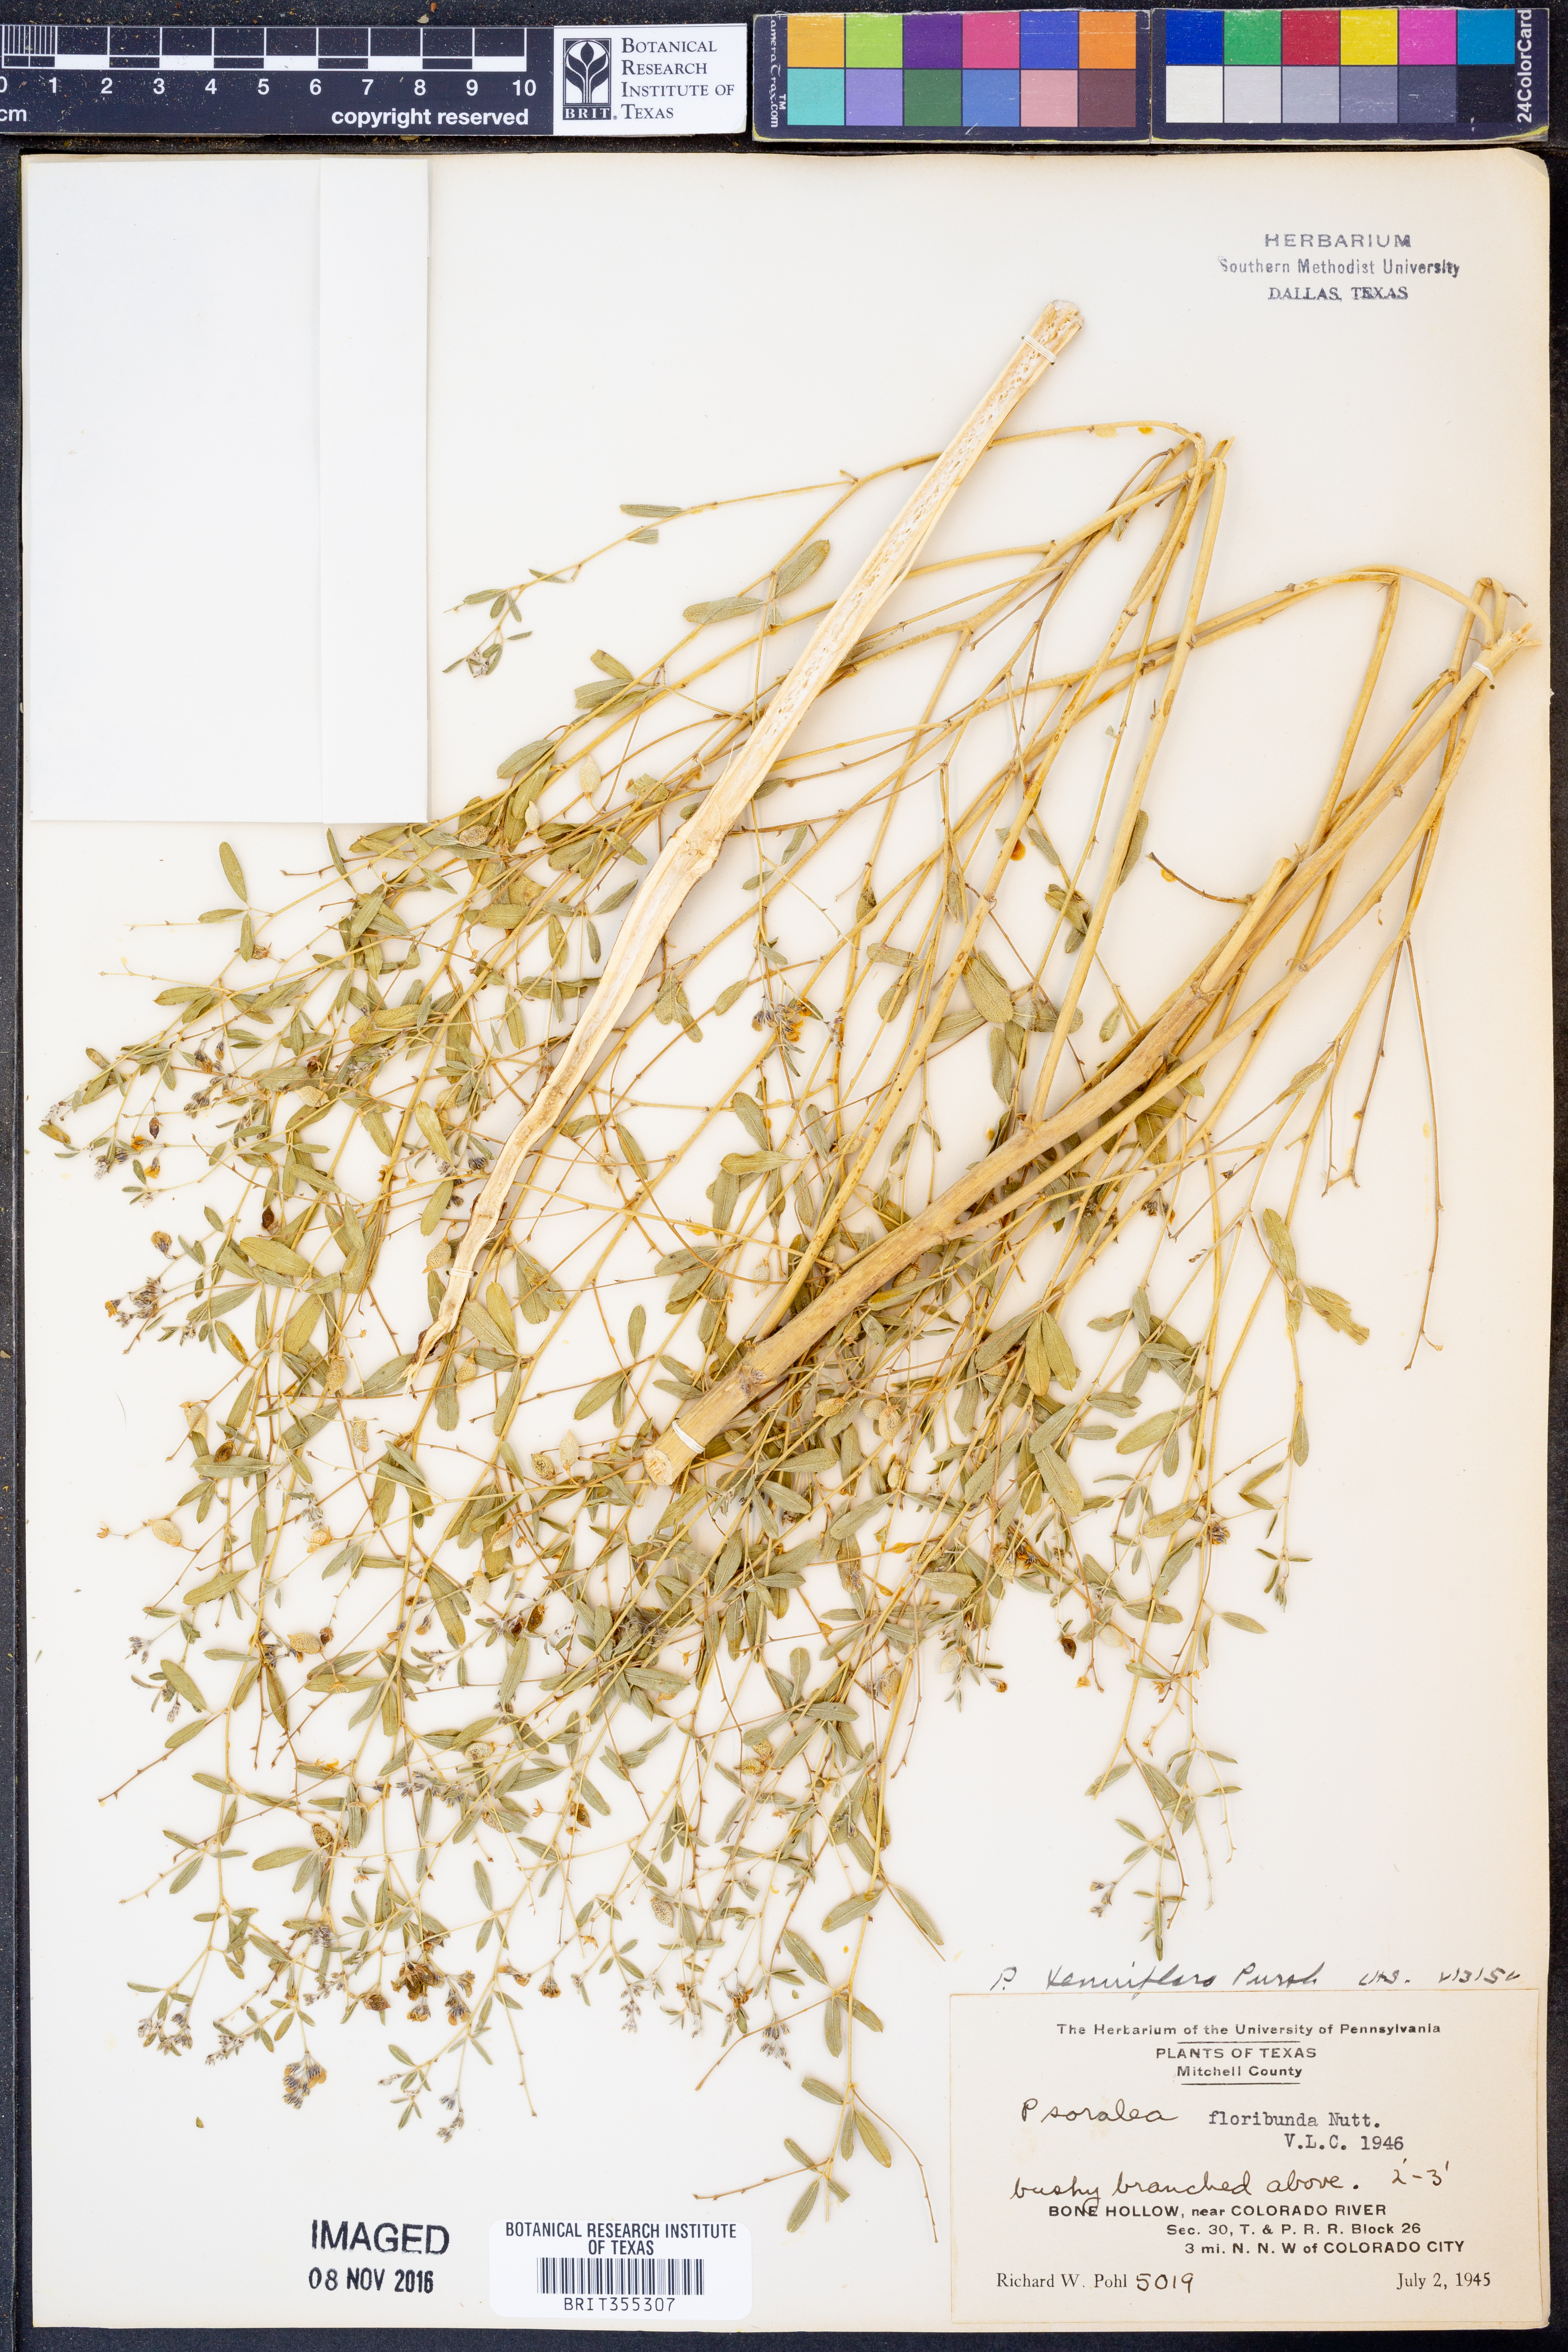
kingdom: Plantae
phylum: Tracheophyta
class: Magnoliopsida
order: Fabales
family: Fabaceae
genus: Pediomelum
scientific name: Pediomelum tenuiflorum
